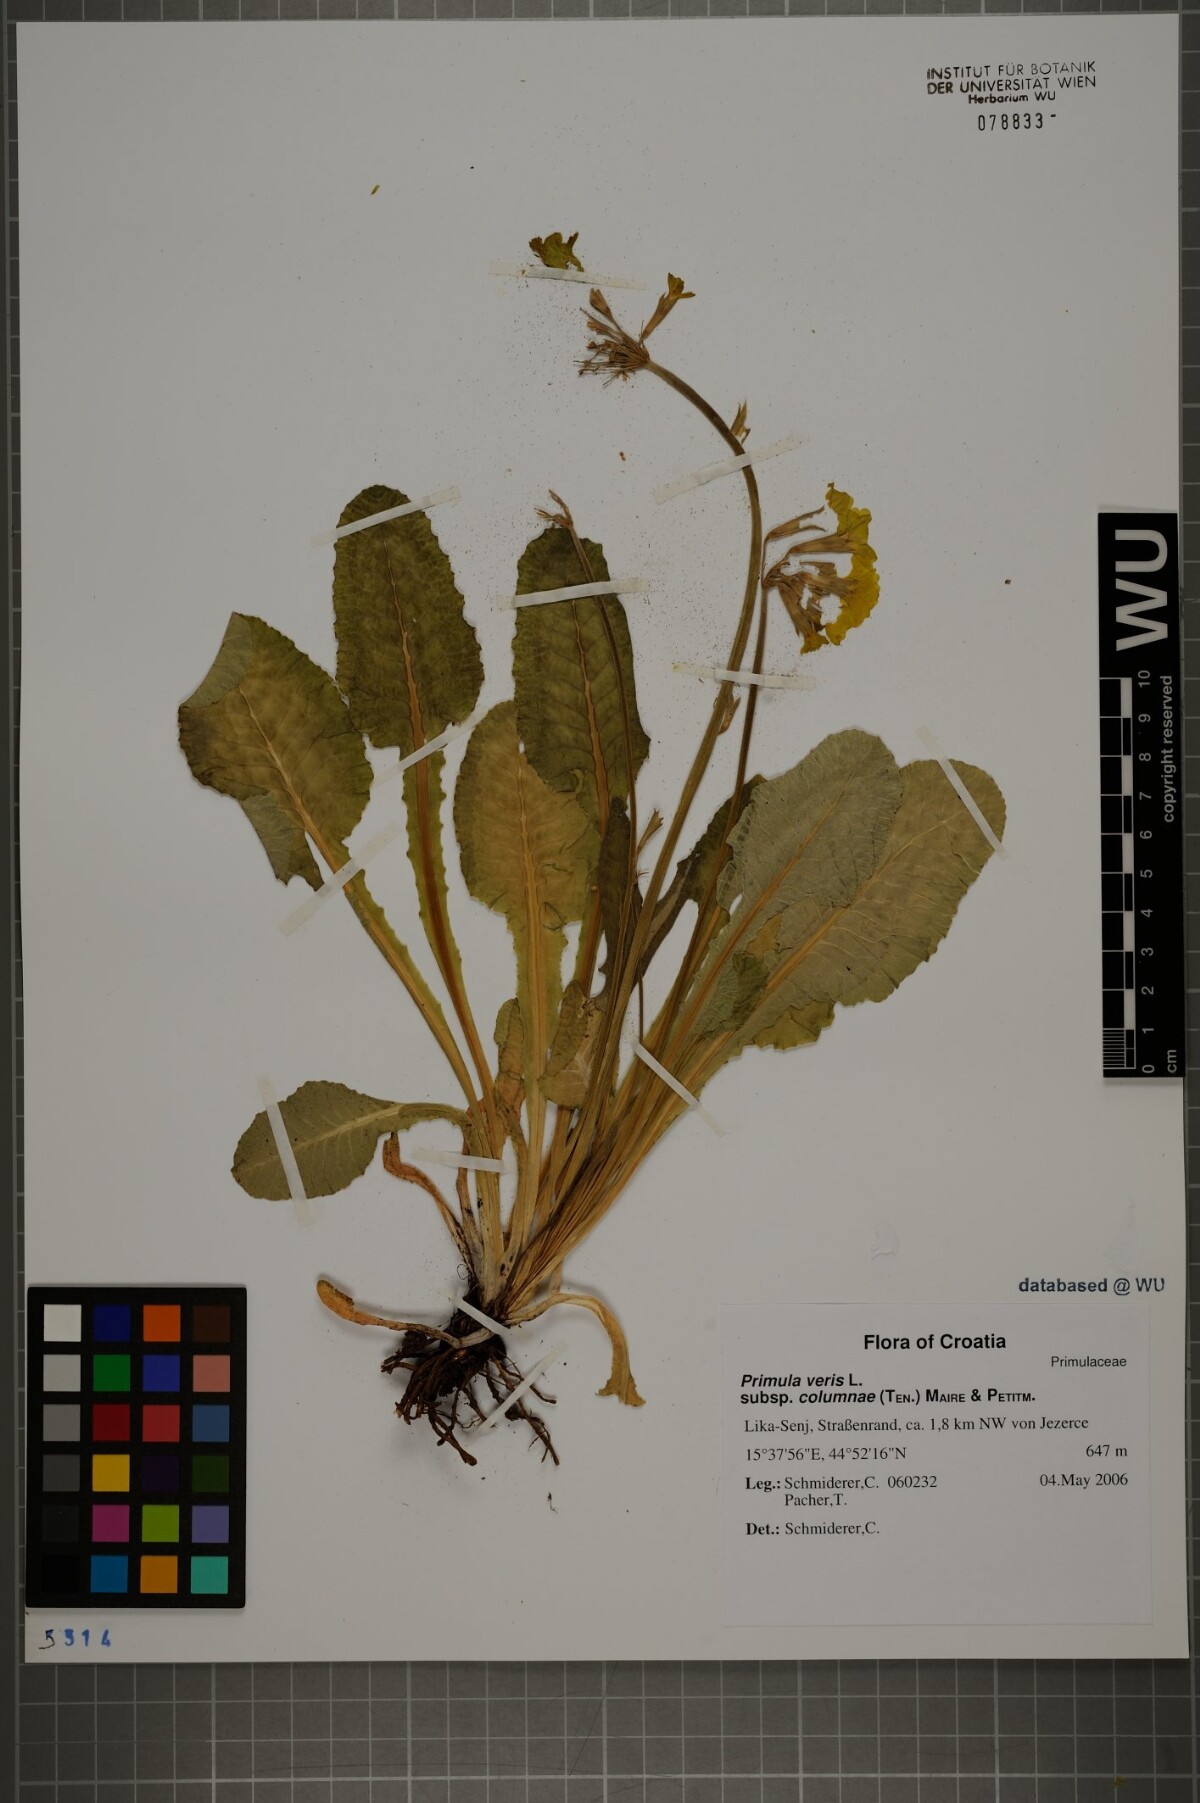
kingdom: Plantae
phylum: Tracheophyta
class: Magnoliopsida
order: Ericales
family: Primulaceae
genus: Primula
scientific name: Primula veris
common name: Cowslip
